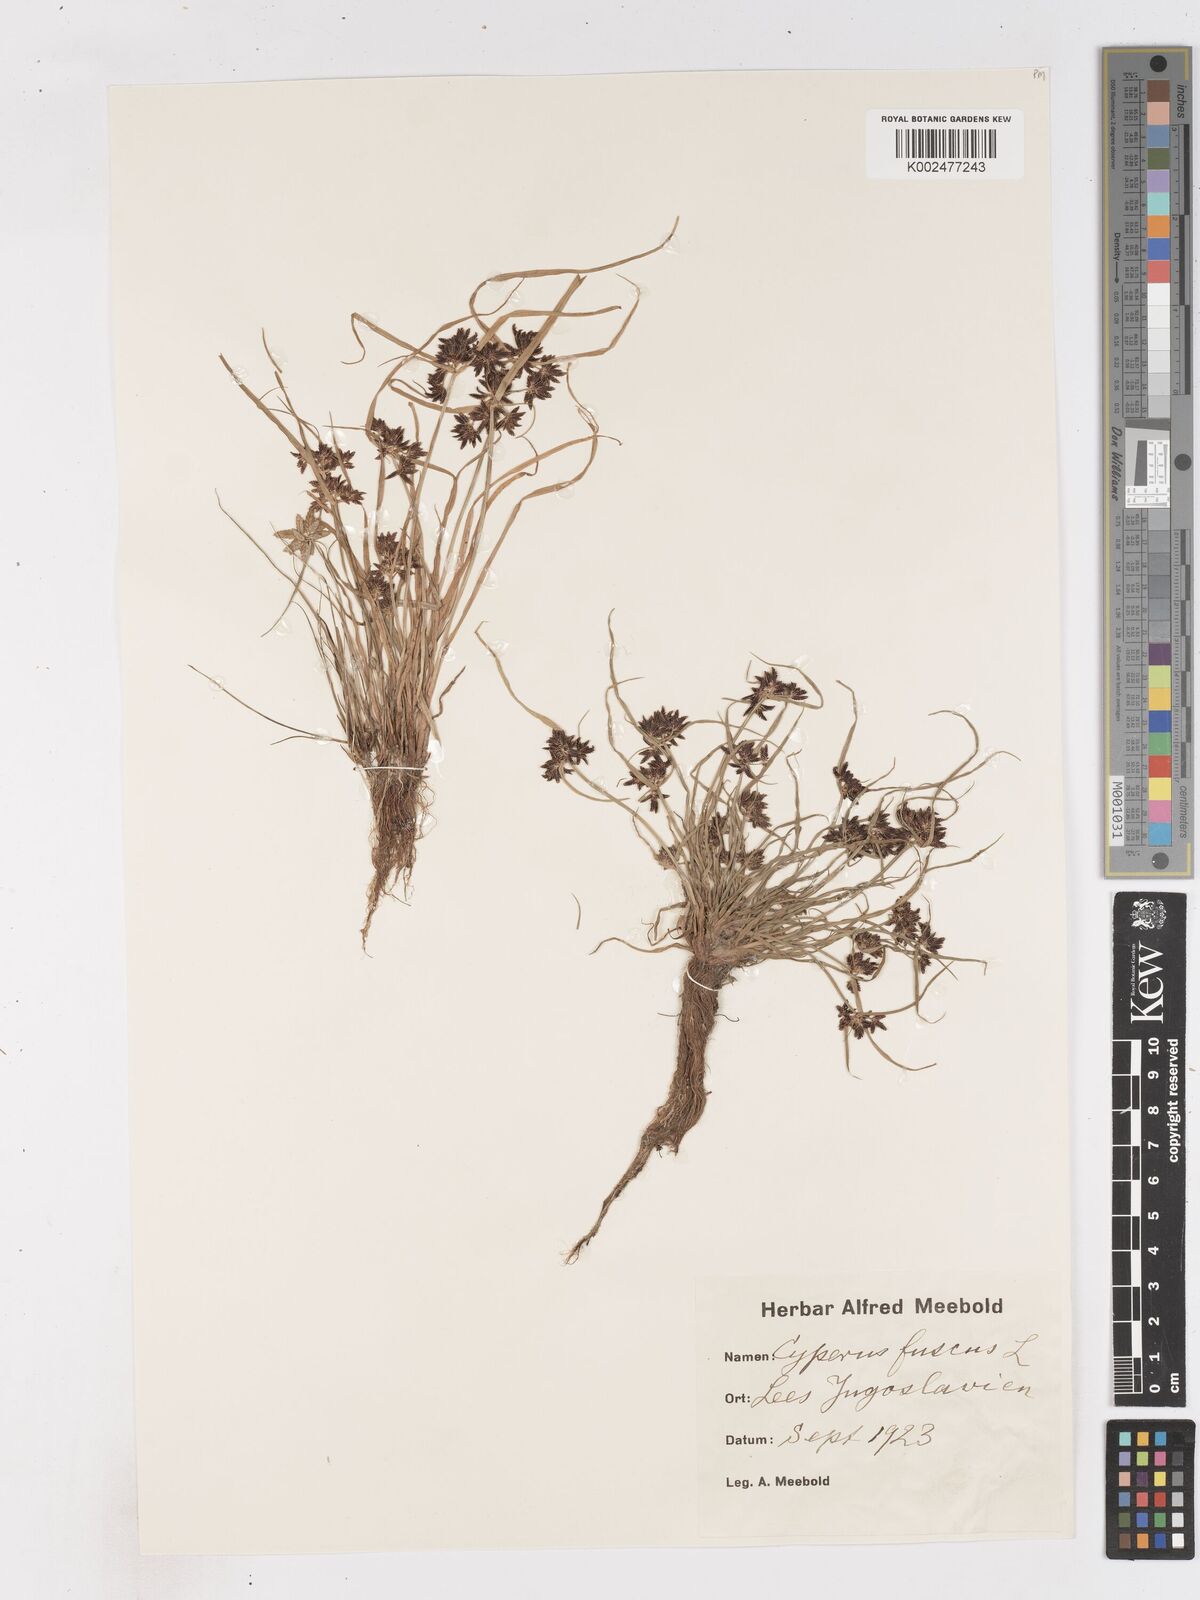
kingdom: Plantae
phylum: Tracheophyta
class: Liliopsida
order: Poales
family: Cyperaceae
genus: Cyperus
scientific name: Cyperus fuscus
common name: Brown galingale
